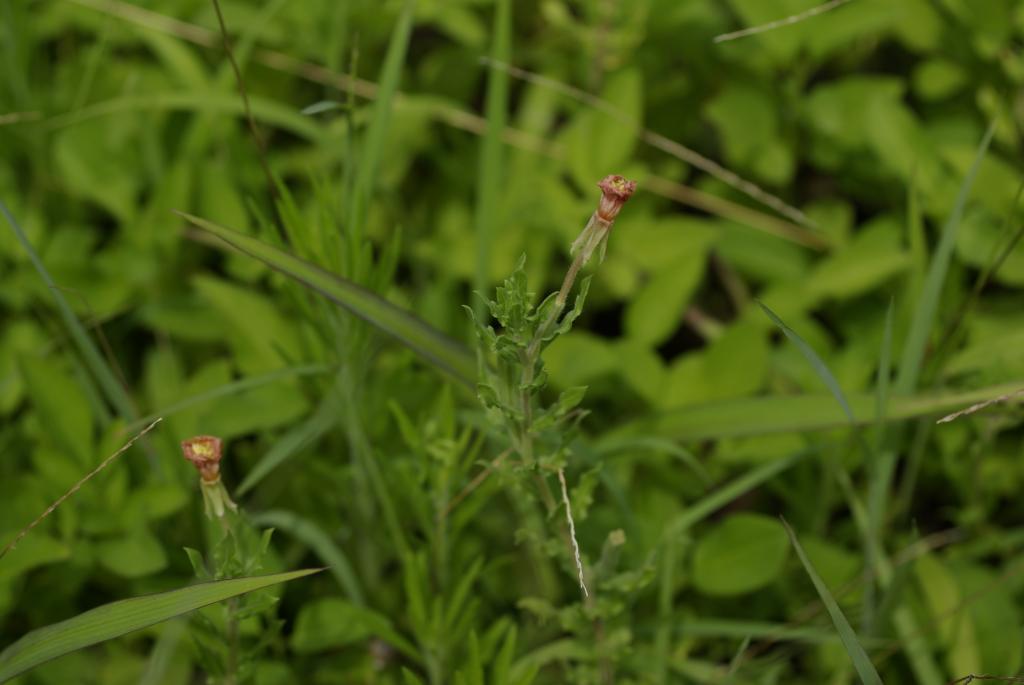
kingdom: Plantae
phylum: Tracheophyta
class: Magnoliopsida
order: Myrtales
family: Onagraceae
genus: Oenothera
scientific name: Oenothera laciniata
